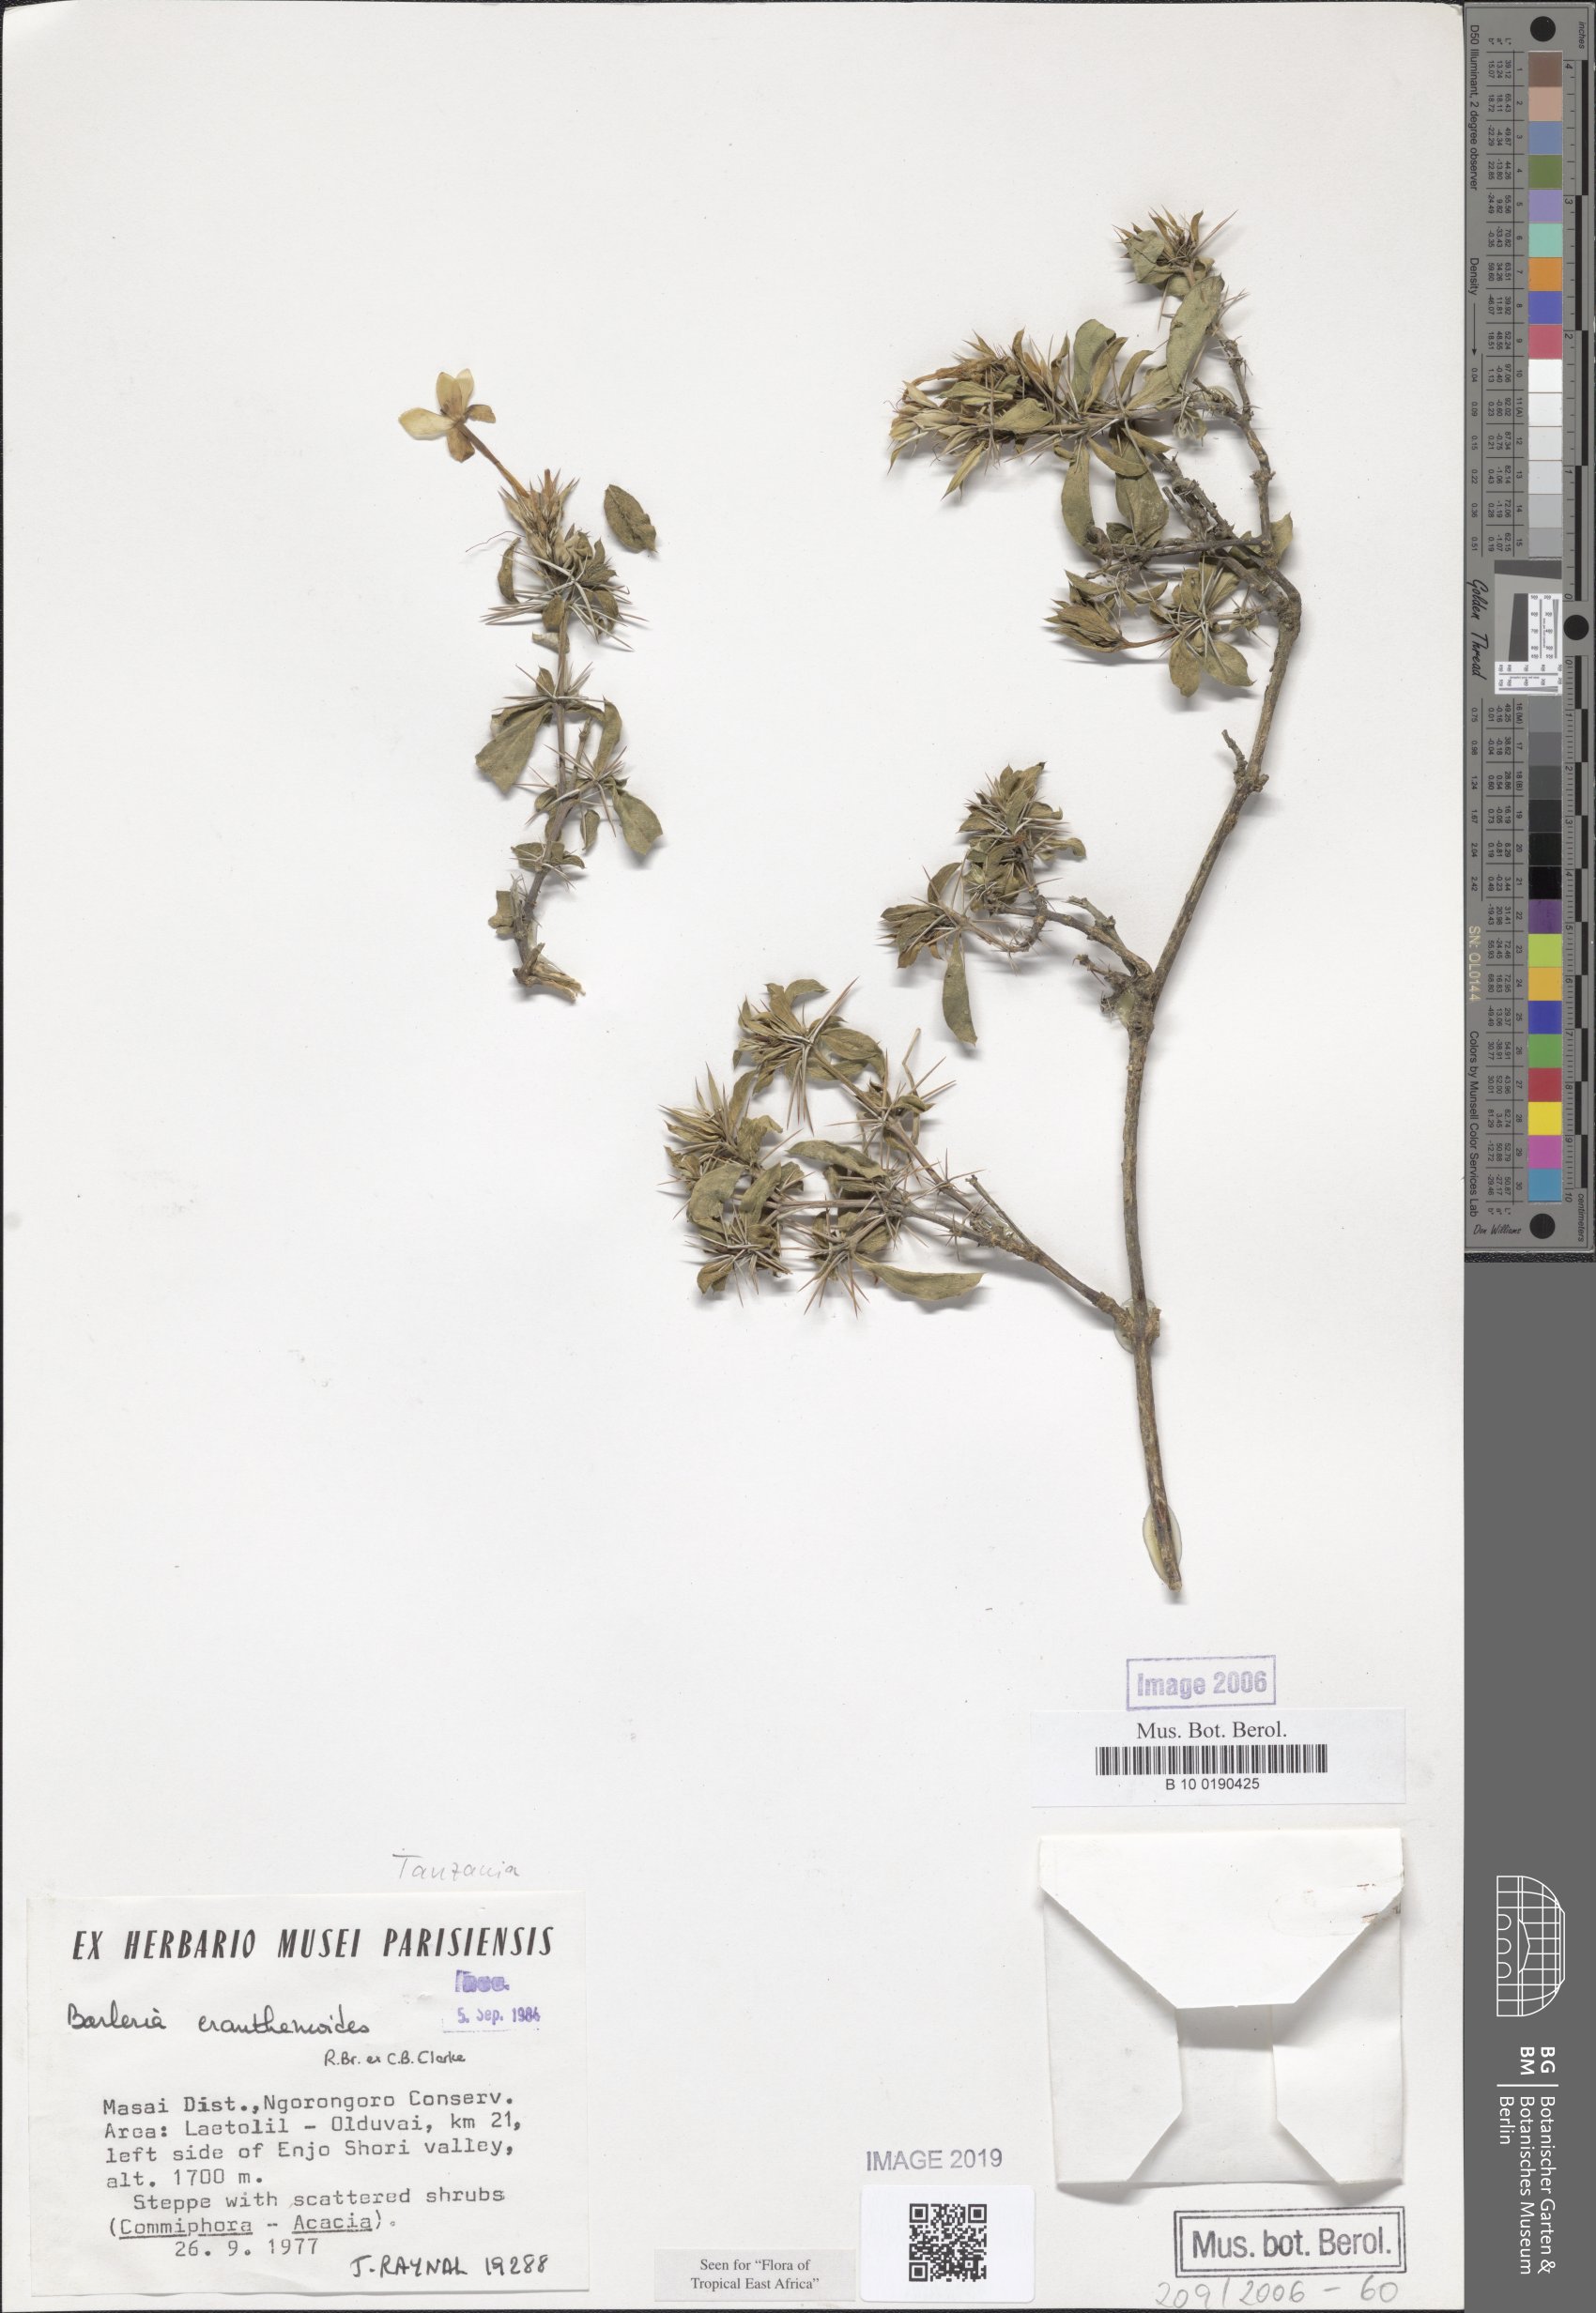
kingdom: Plantae
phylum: Tracheophyta
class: Magnoliopsida
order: Lamiales
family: Acanthaceae
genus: Barleria
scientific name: Barleria eranthemoides
